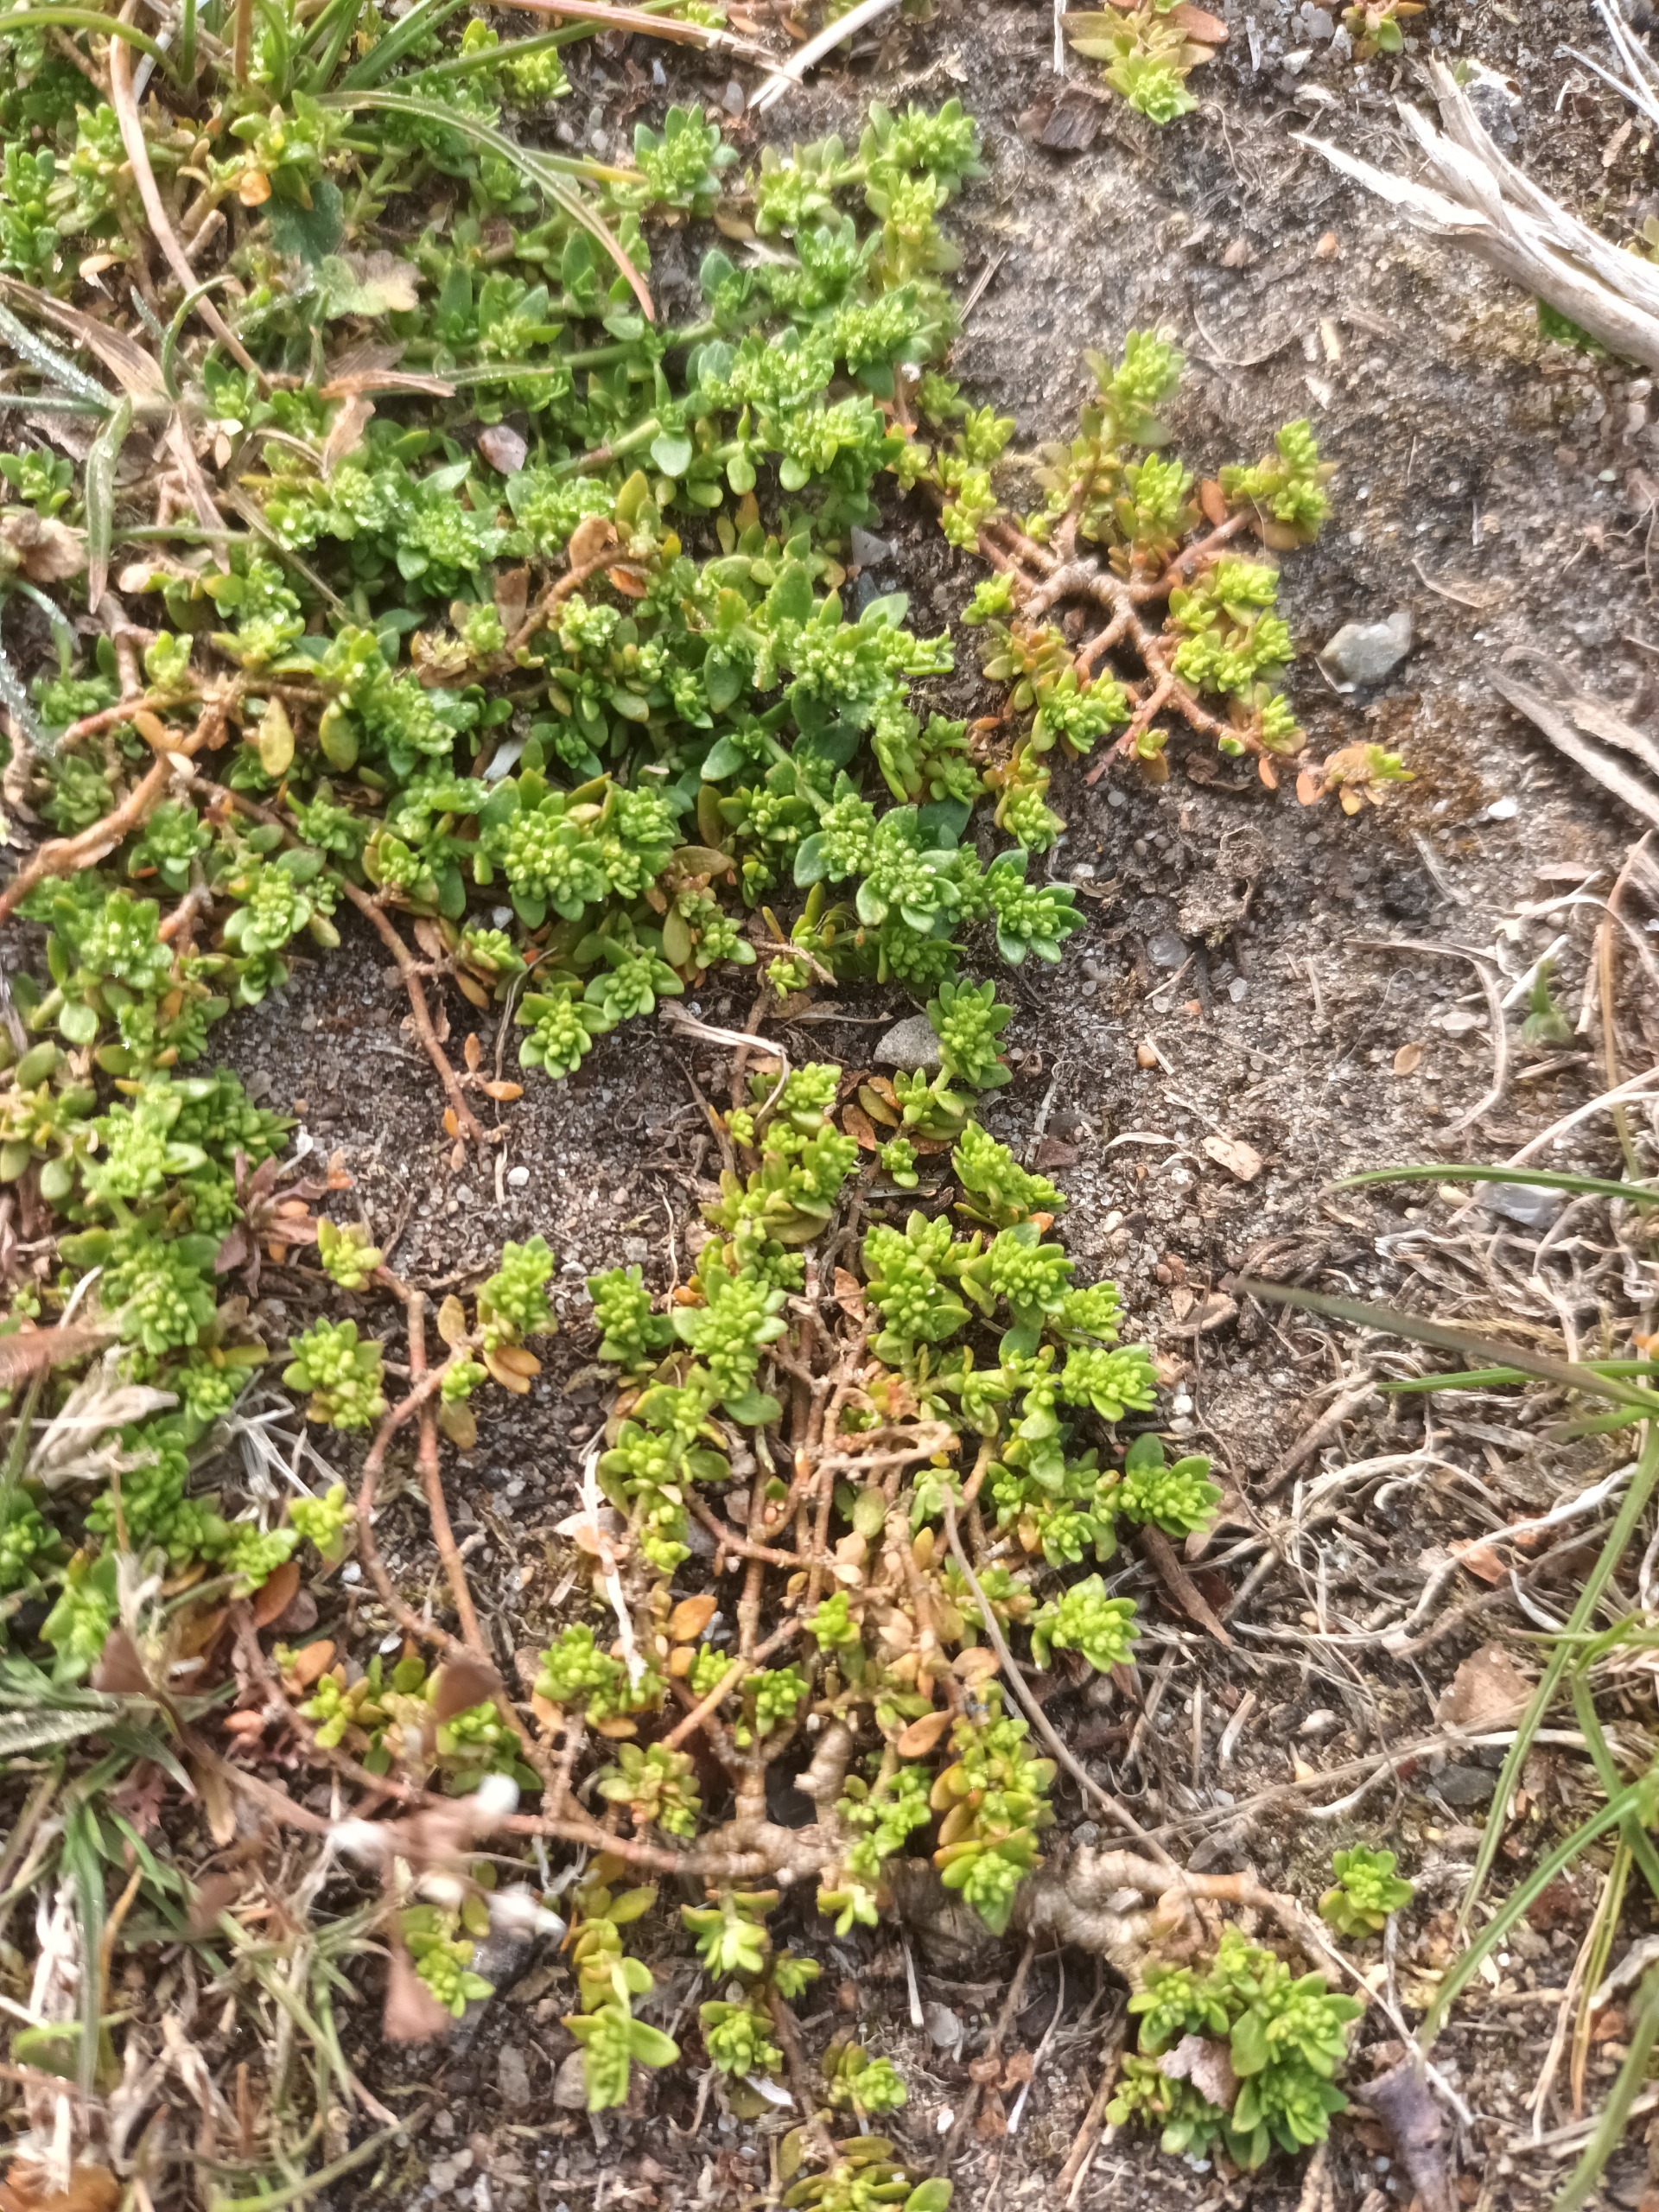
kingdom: Plantae
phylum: Tracheophyta
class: Magnoliopsida
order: Caryophyllales
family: Caryophyllaceae
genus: Herniaria
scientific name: Herniaria glabra
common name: Brudurt
